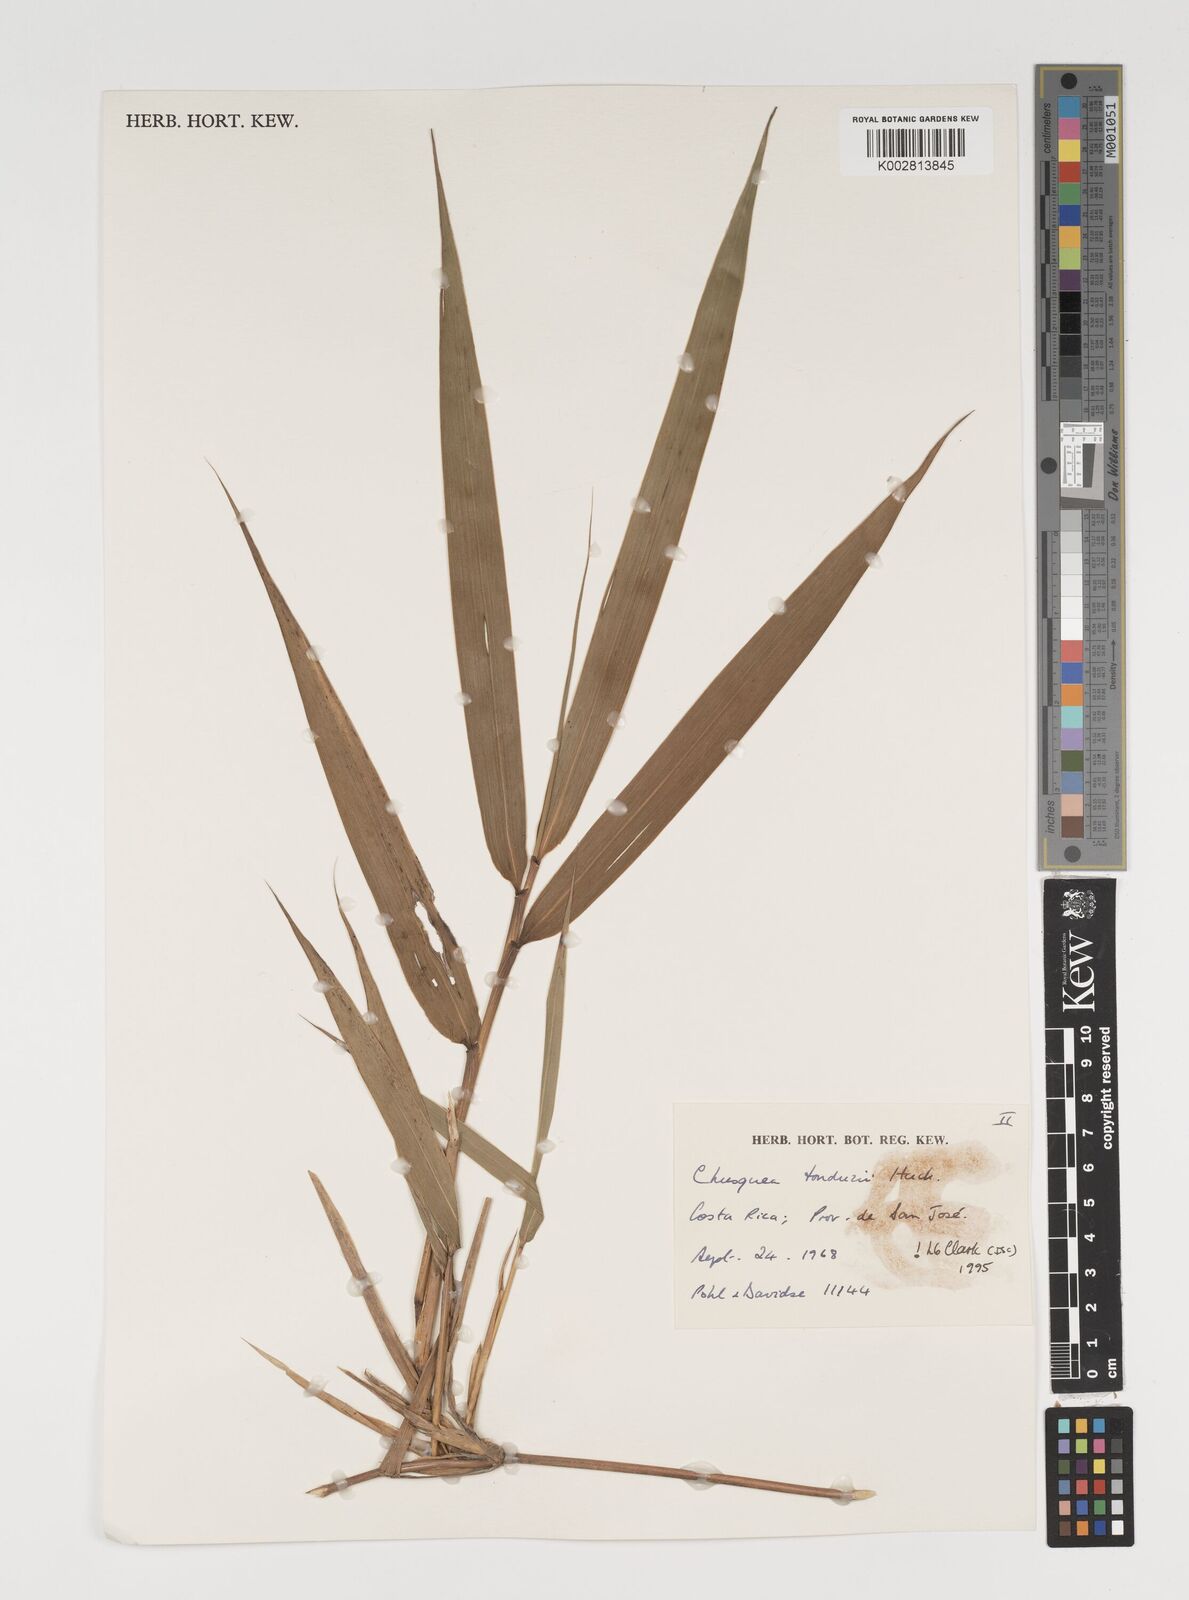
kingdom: Plantae
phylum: Tracheophyta
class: Liliopsida
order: Poales
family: Poaceae
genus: Chusquea
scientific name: Chusquea tonduzii
